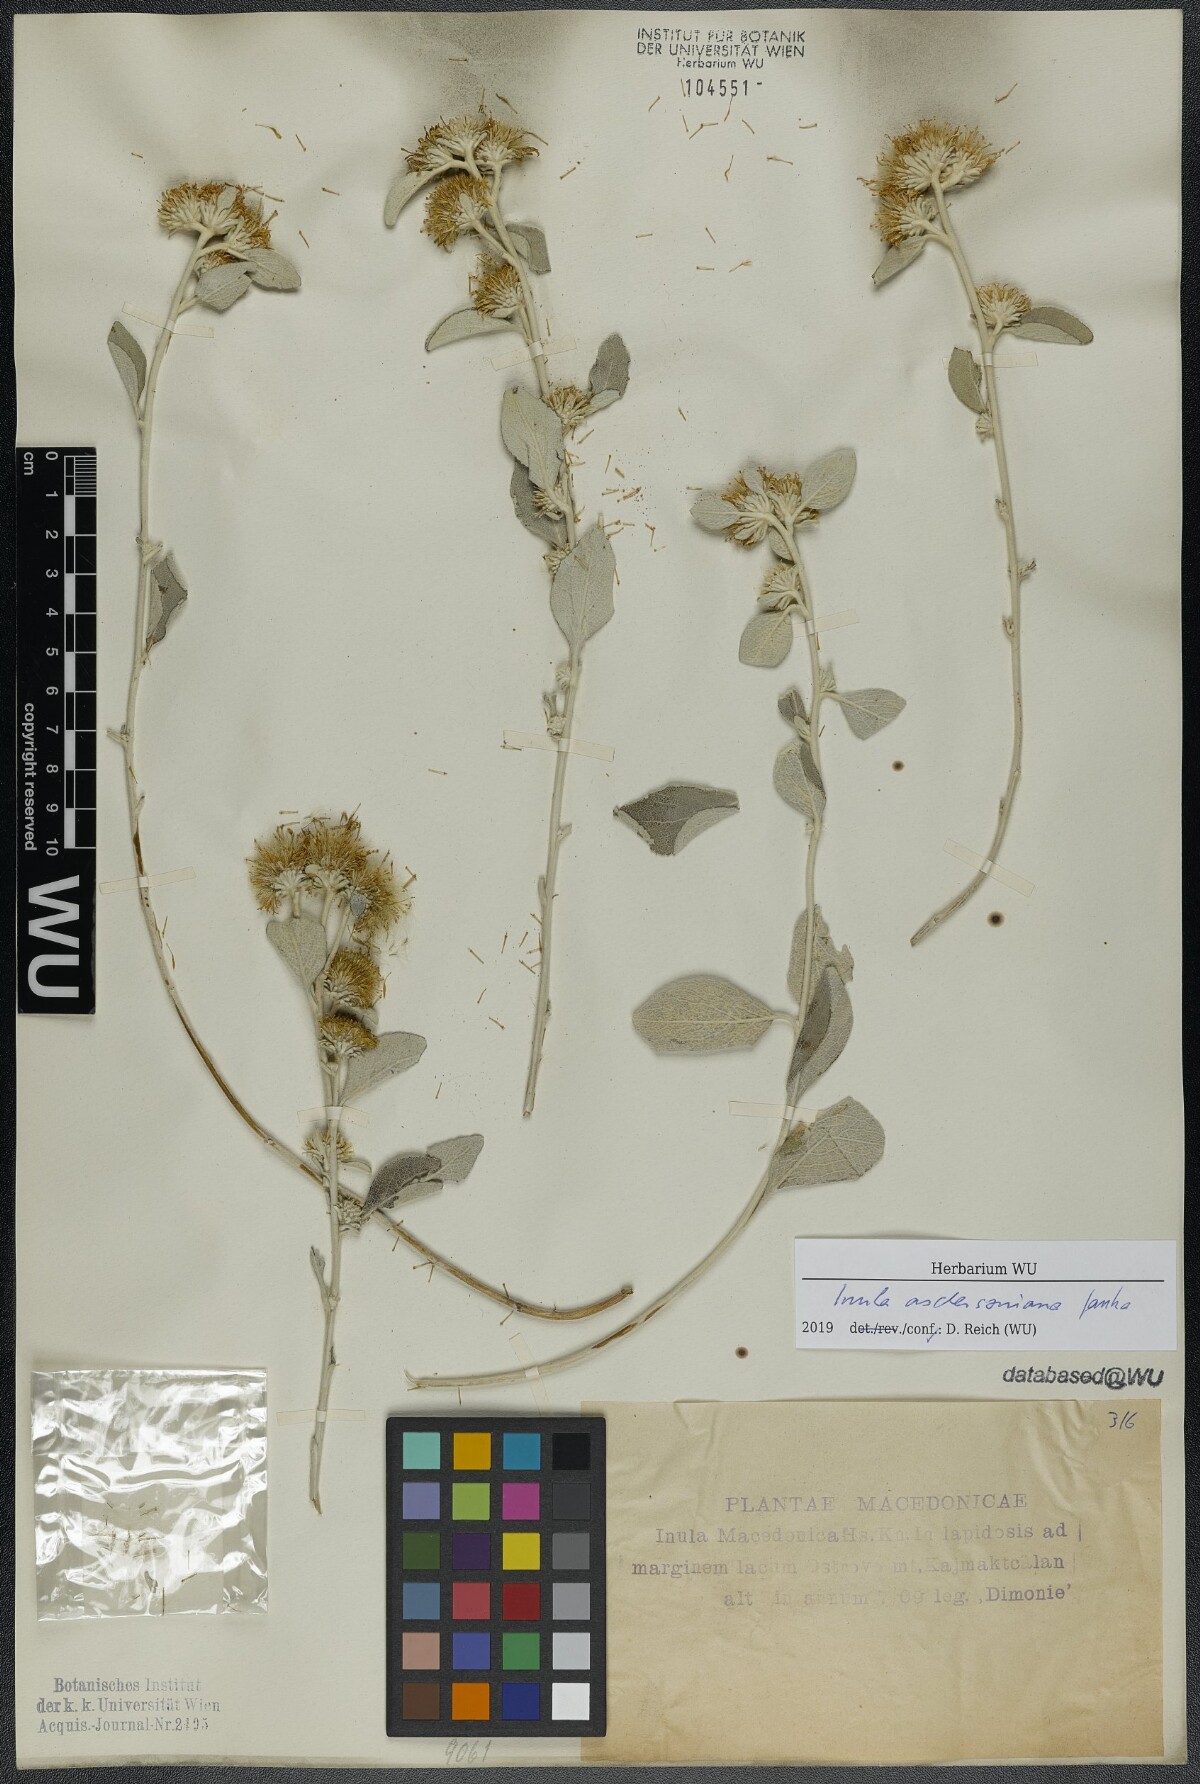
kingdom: Plantae
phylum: Tracheophyta
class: Magnoliopsida
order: Asterales
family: Asteraceae
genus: Pentanema
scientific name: Pentanema aschersonianum
